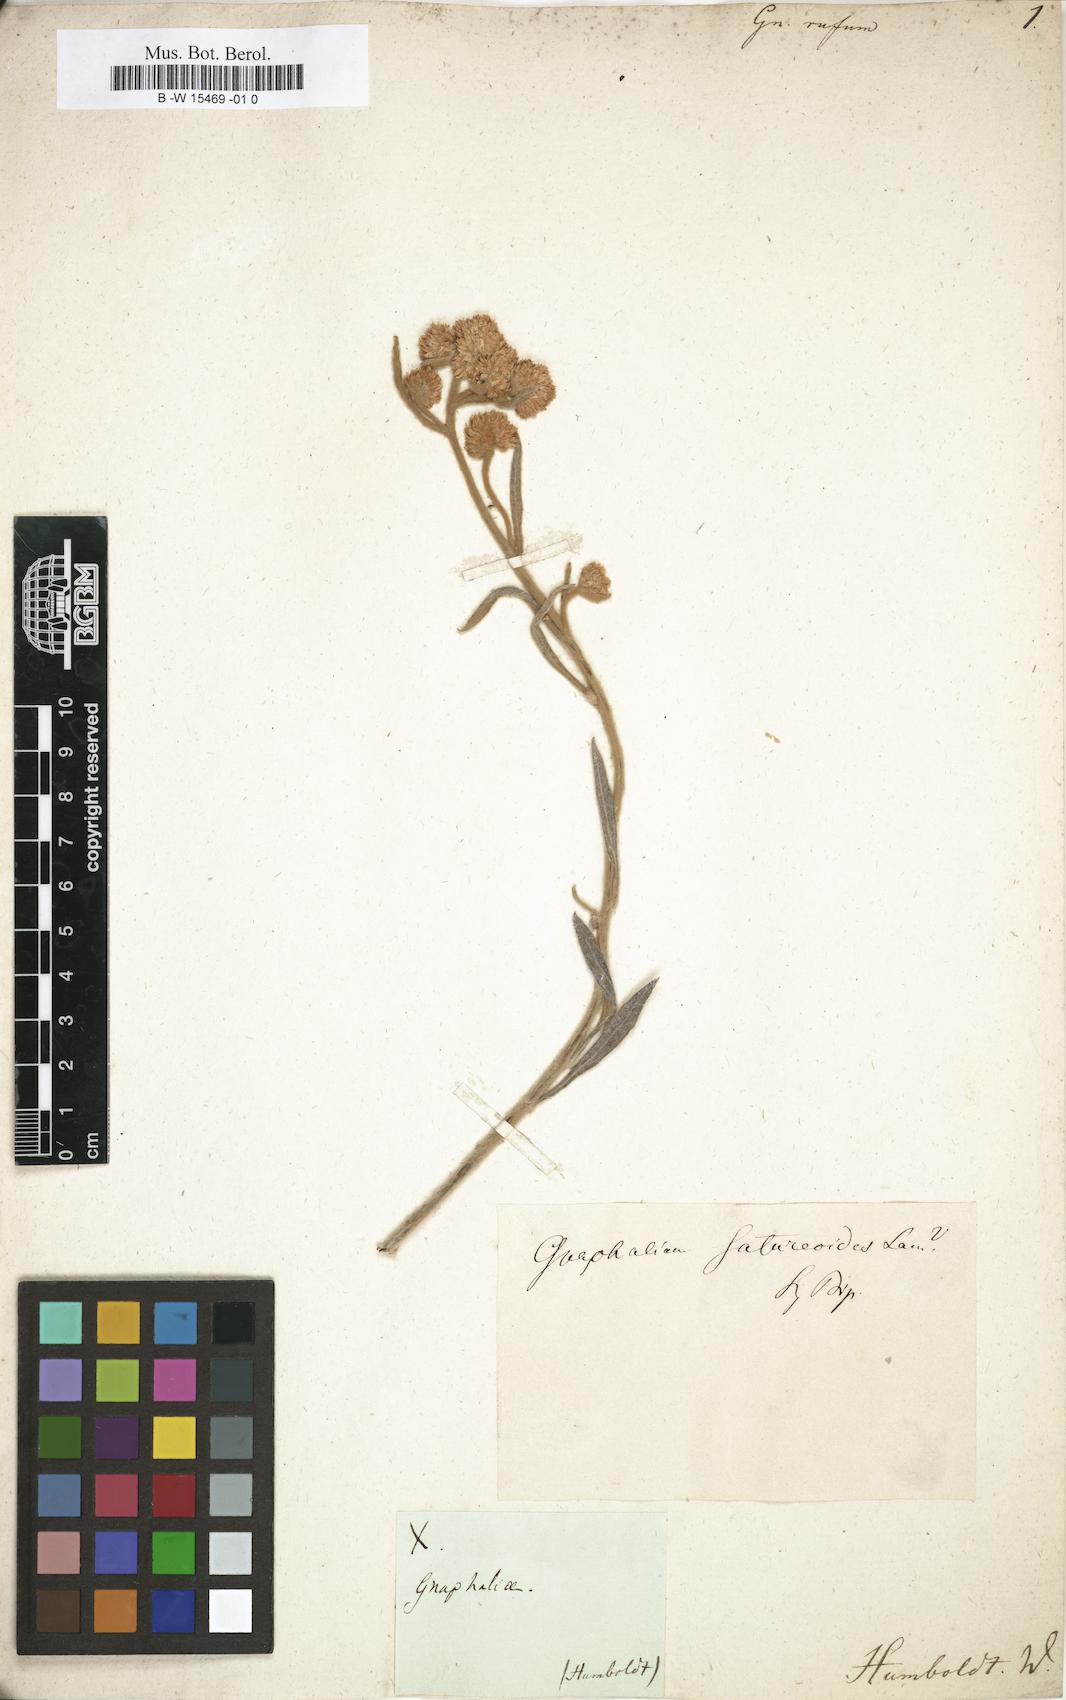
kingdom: Plantae
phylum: Tracheophyta
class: Magnoliopsida
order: Asterales
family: Asteraceae
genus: Achyrocline
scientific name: Achyrocline satureioides
